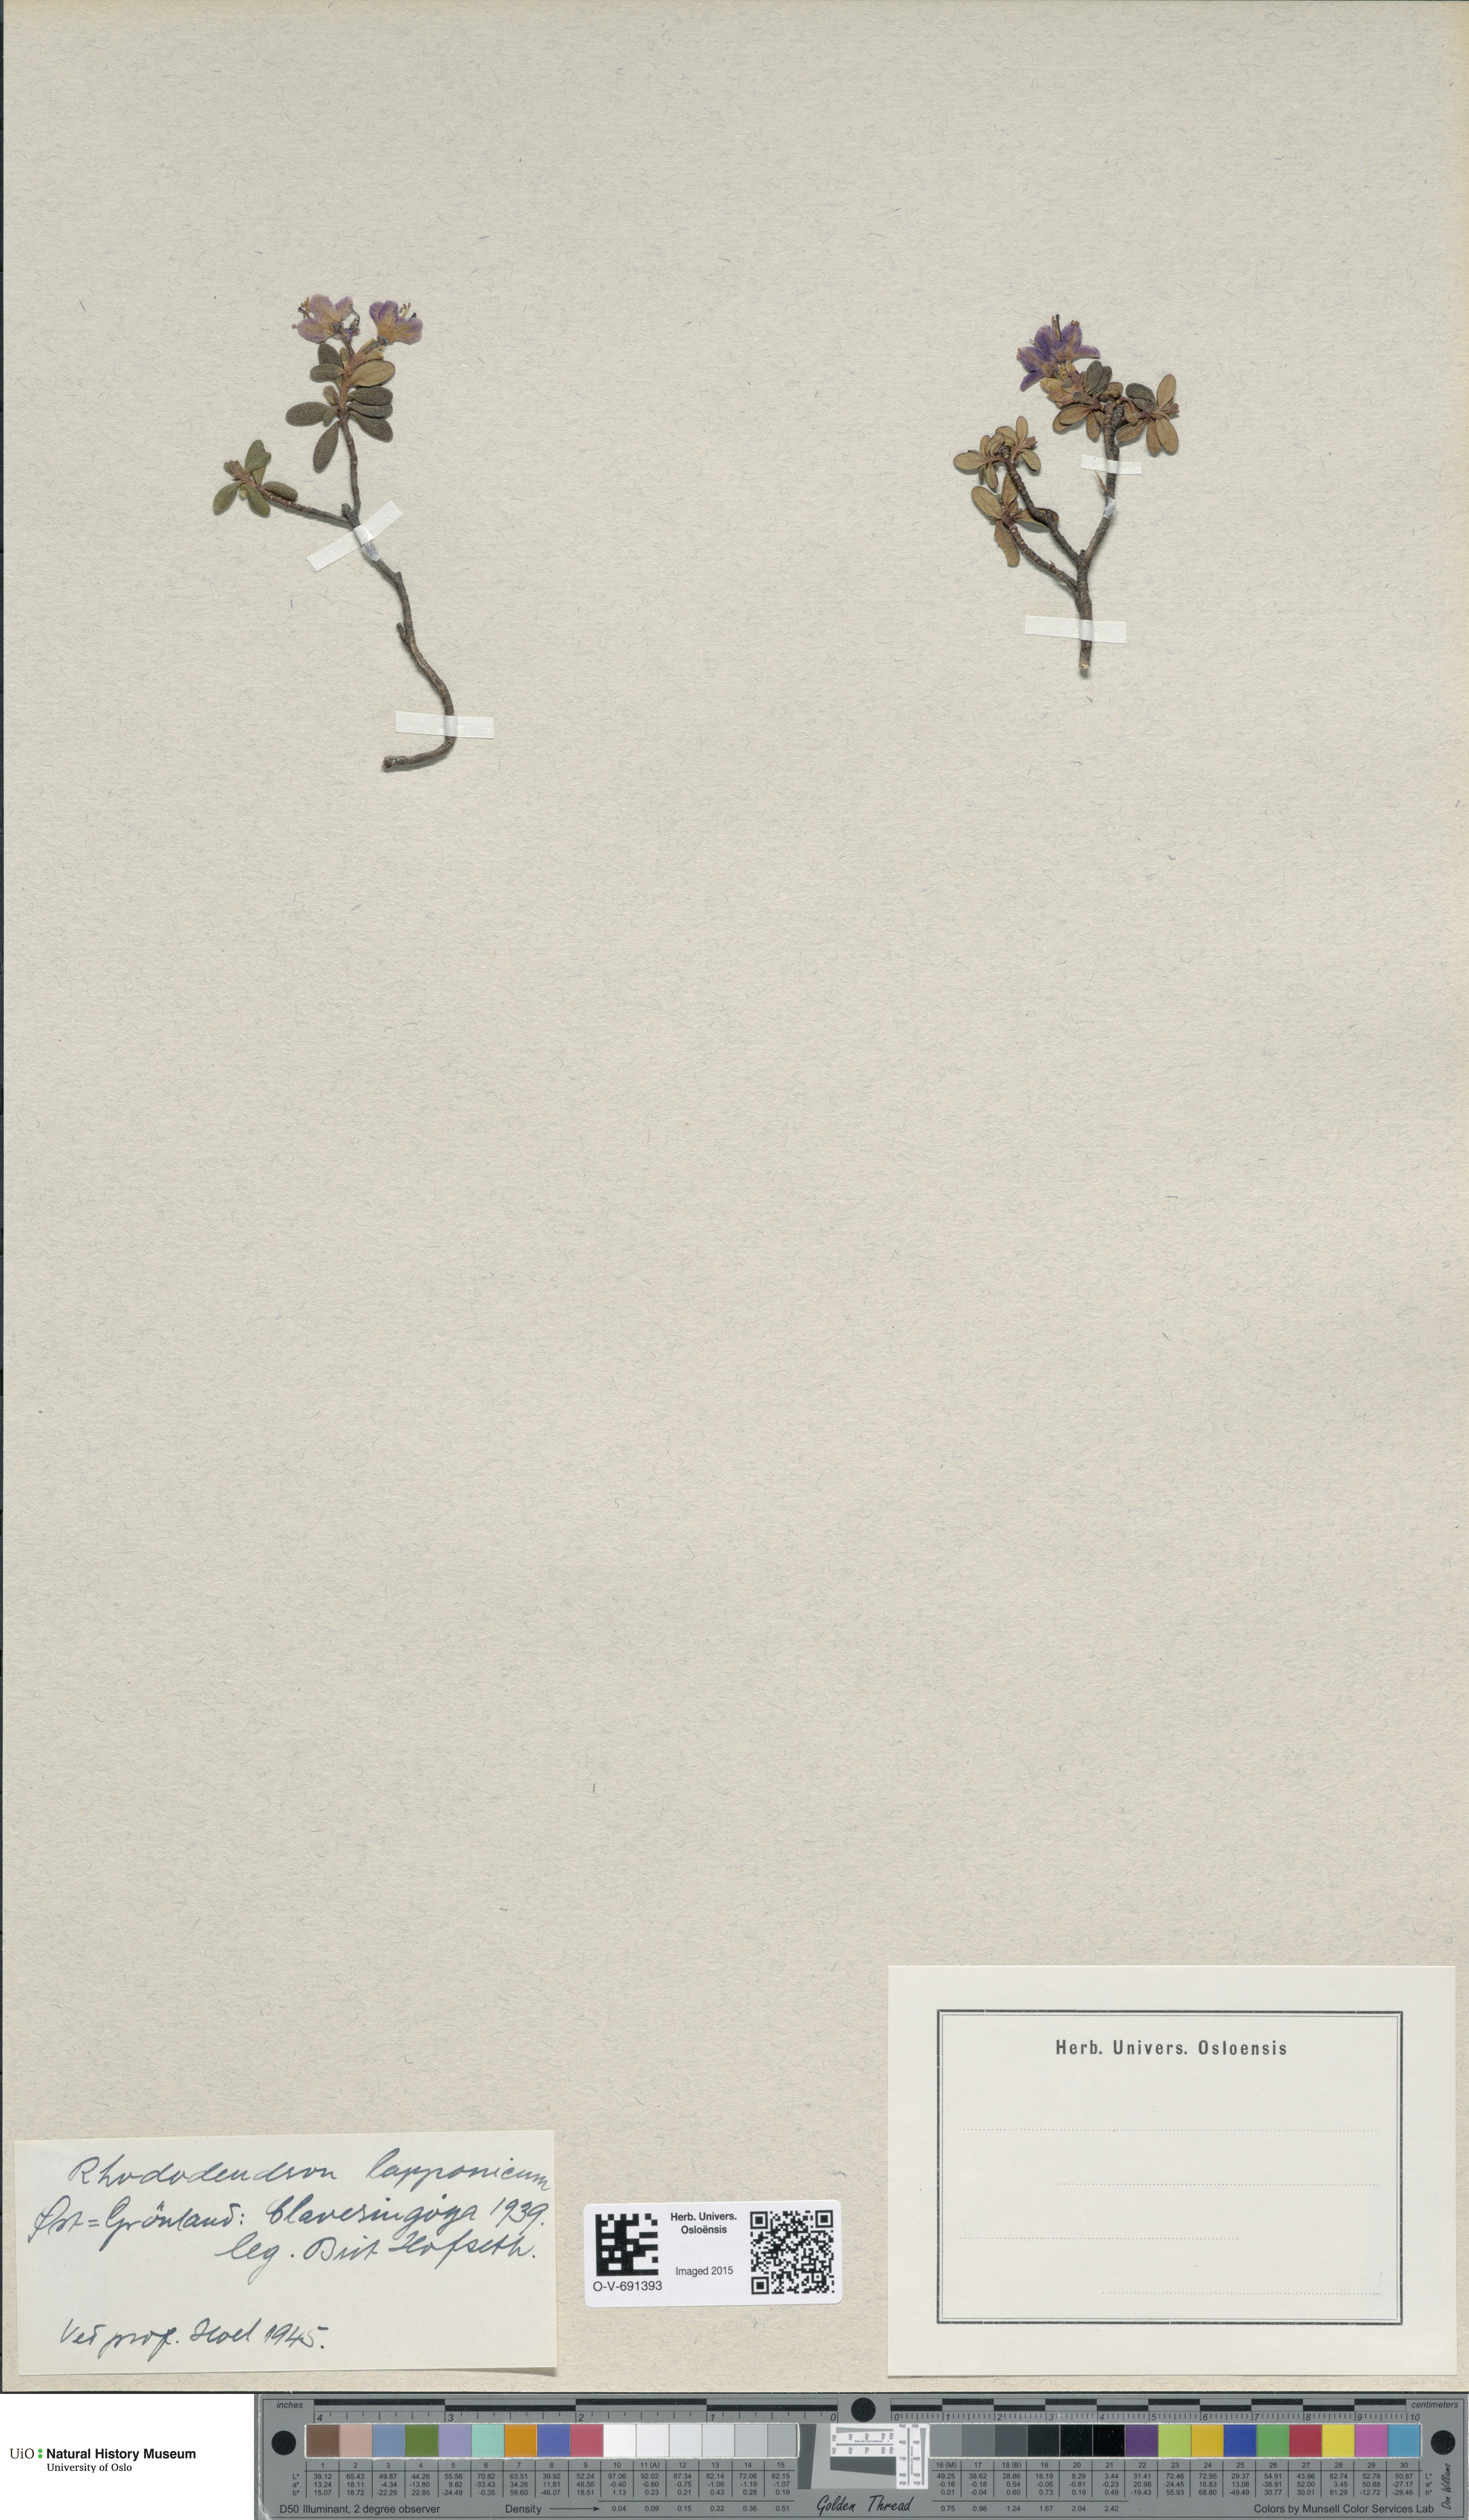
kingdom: Plantae
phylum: Tracheophyta
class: Magnoliopsida
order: Ericales
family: Ericaceae
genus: Rhododendron
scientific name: Rhododendron lapponicum
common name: Lapland rhododendron
